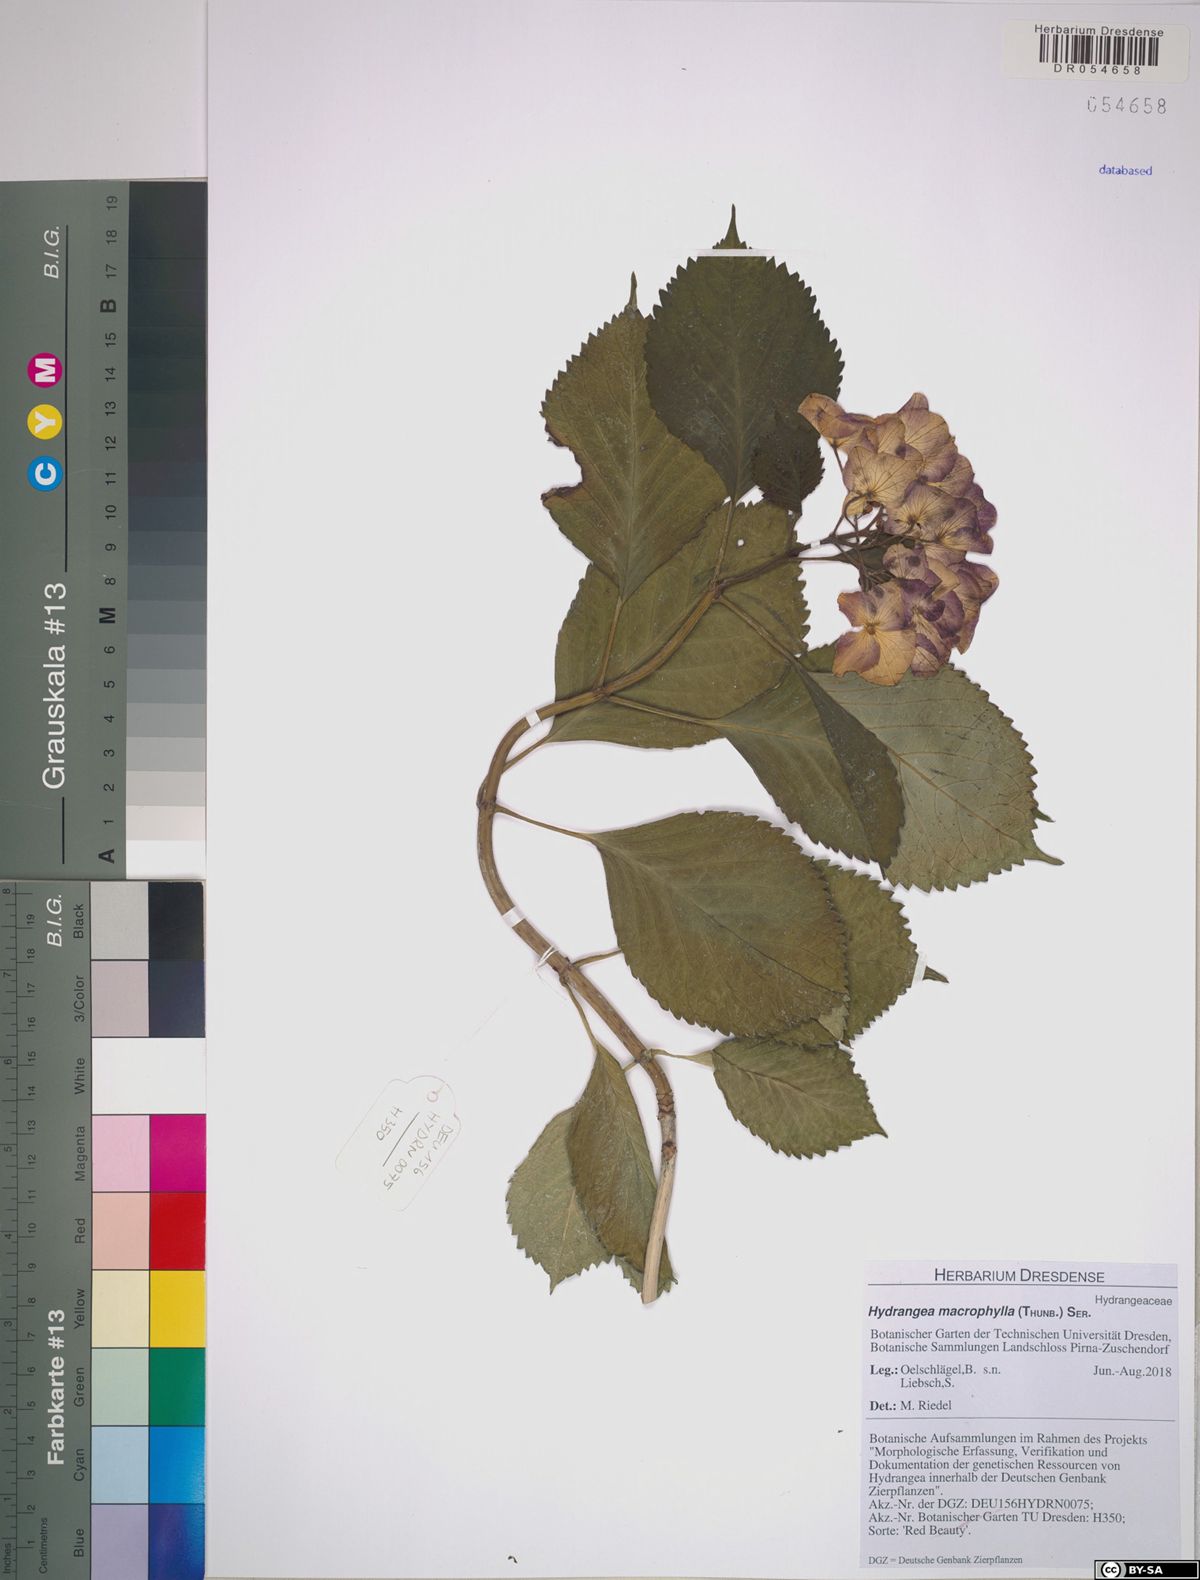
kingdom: Plantae
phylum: Tracheophyta
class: Magnoliopsida
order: Cornales
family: Hydrangeaceae
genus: Hydrangea
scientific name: Hydrangea macrophylla
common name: Hydrangea
